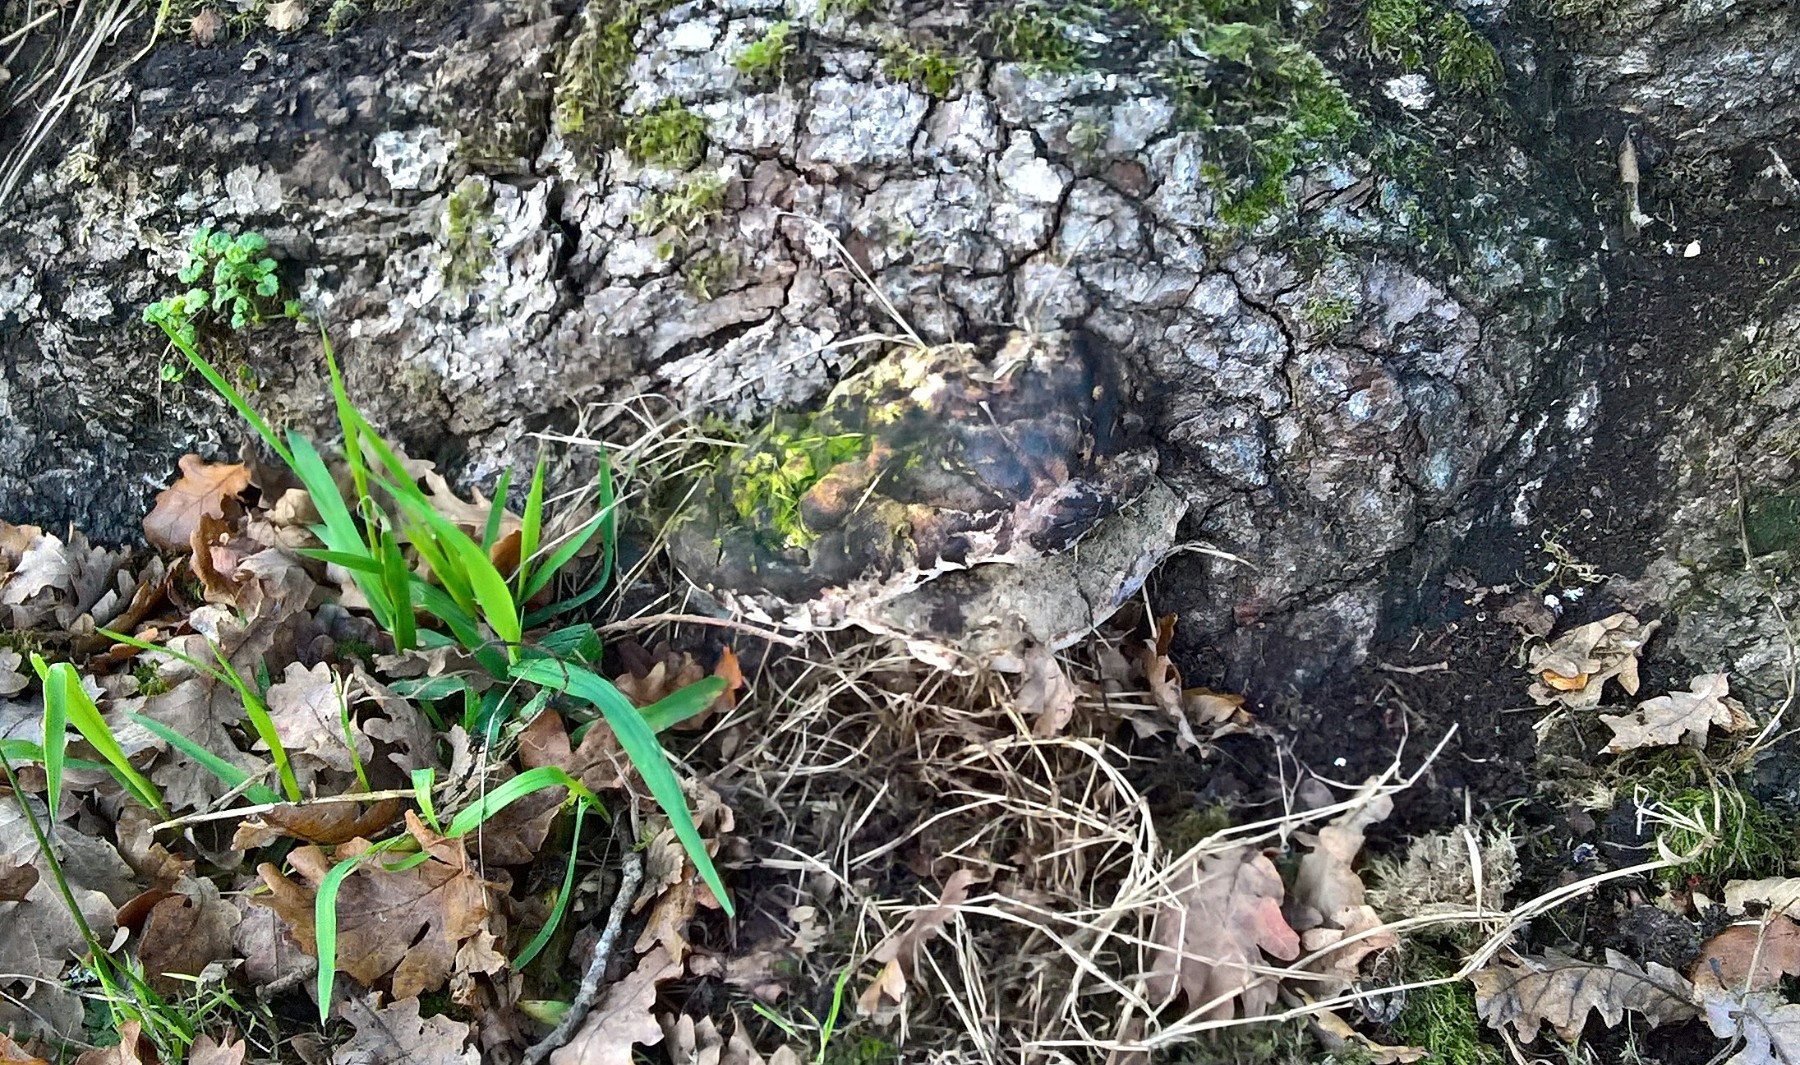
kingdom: Fungi
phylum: Basidiomycota
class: Agaricomycetes
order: Polyporales
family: Polyporaceae
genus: Vanderbylia
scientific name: Vanderbylia fraxinea
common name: stor kanelporesvamp
